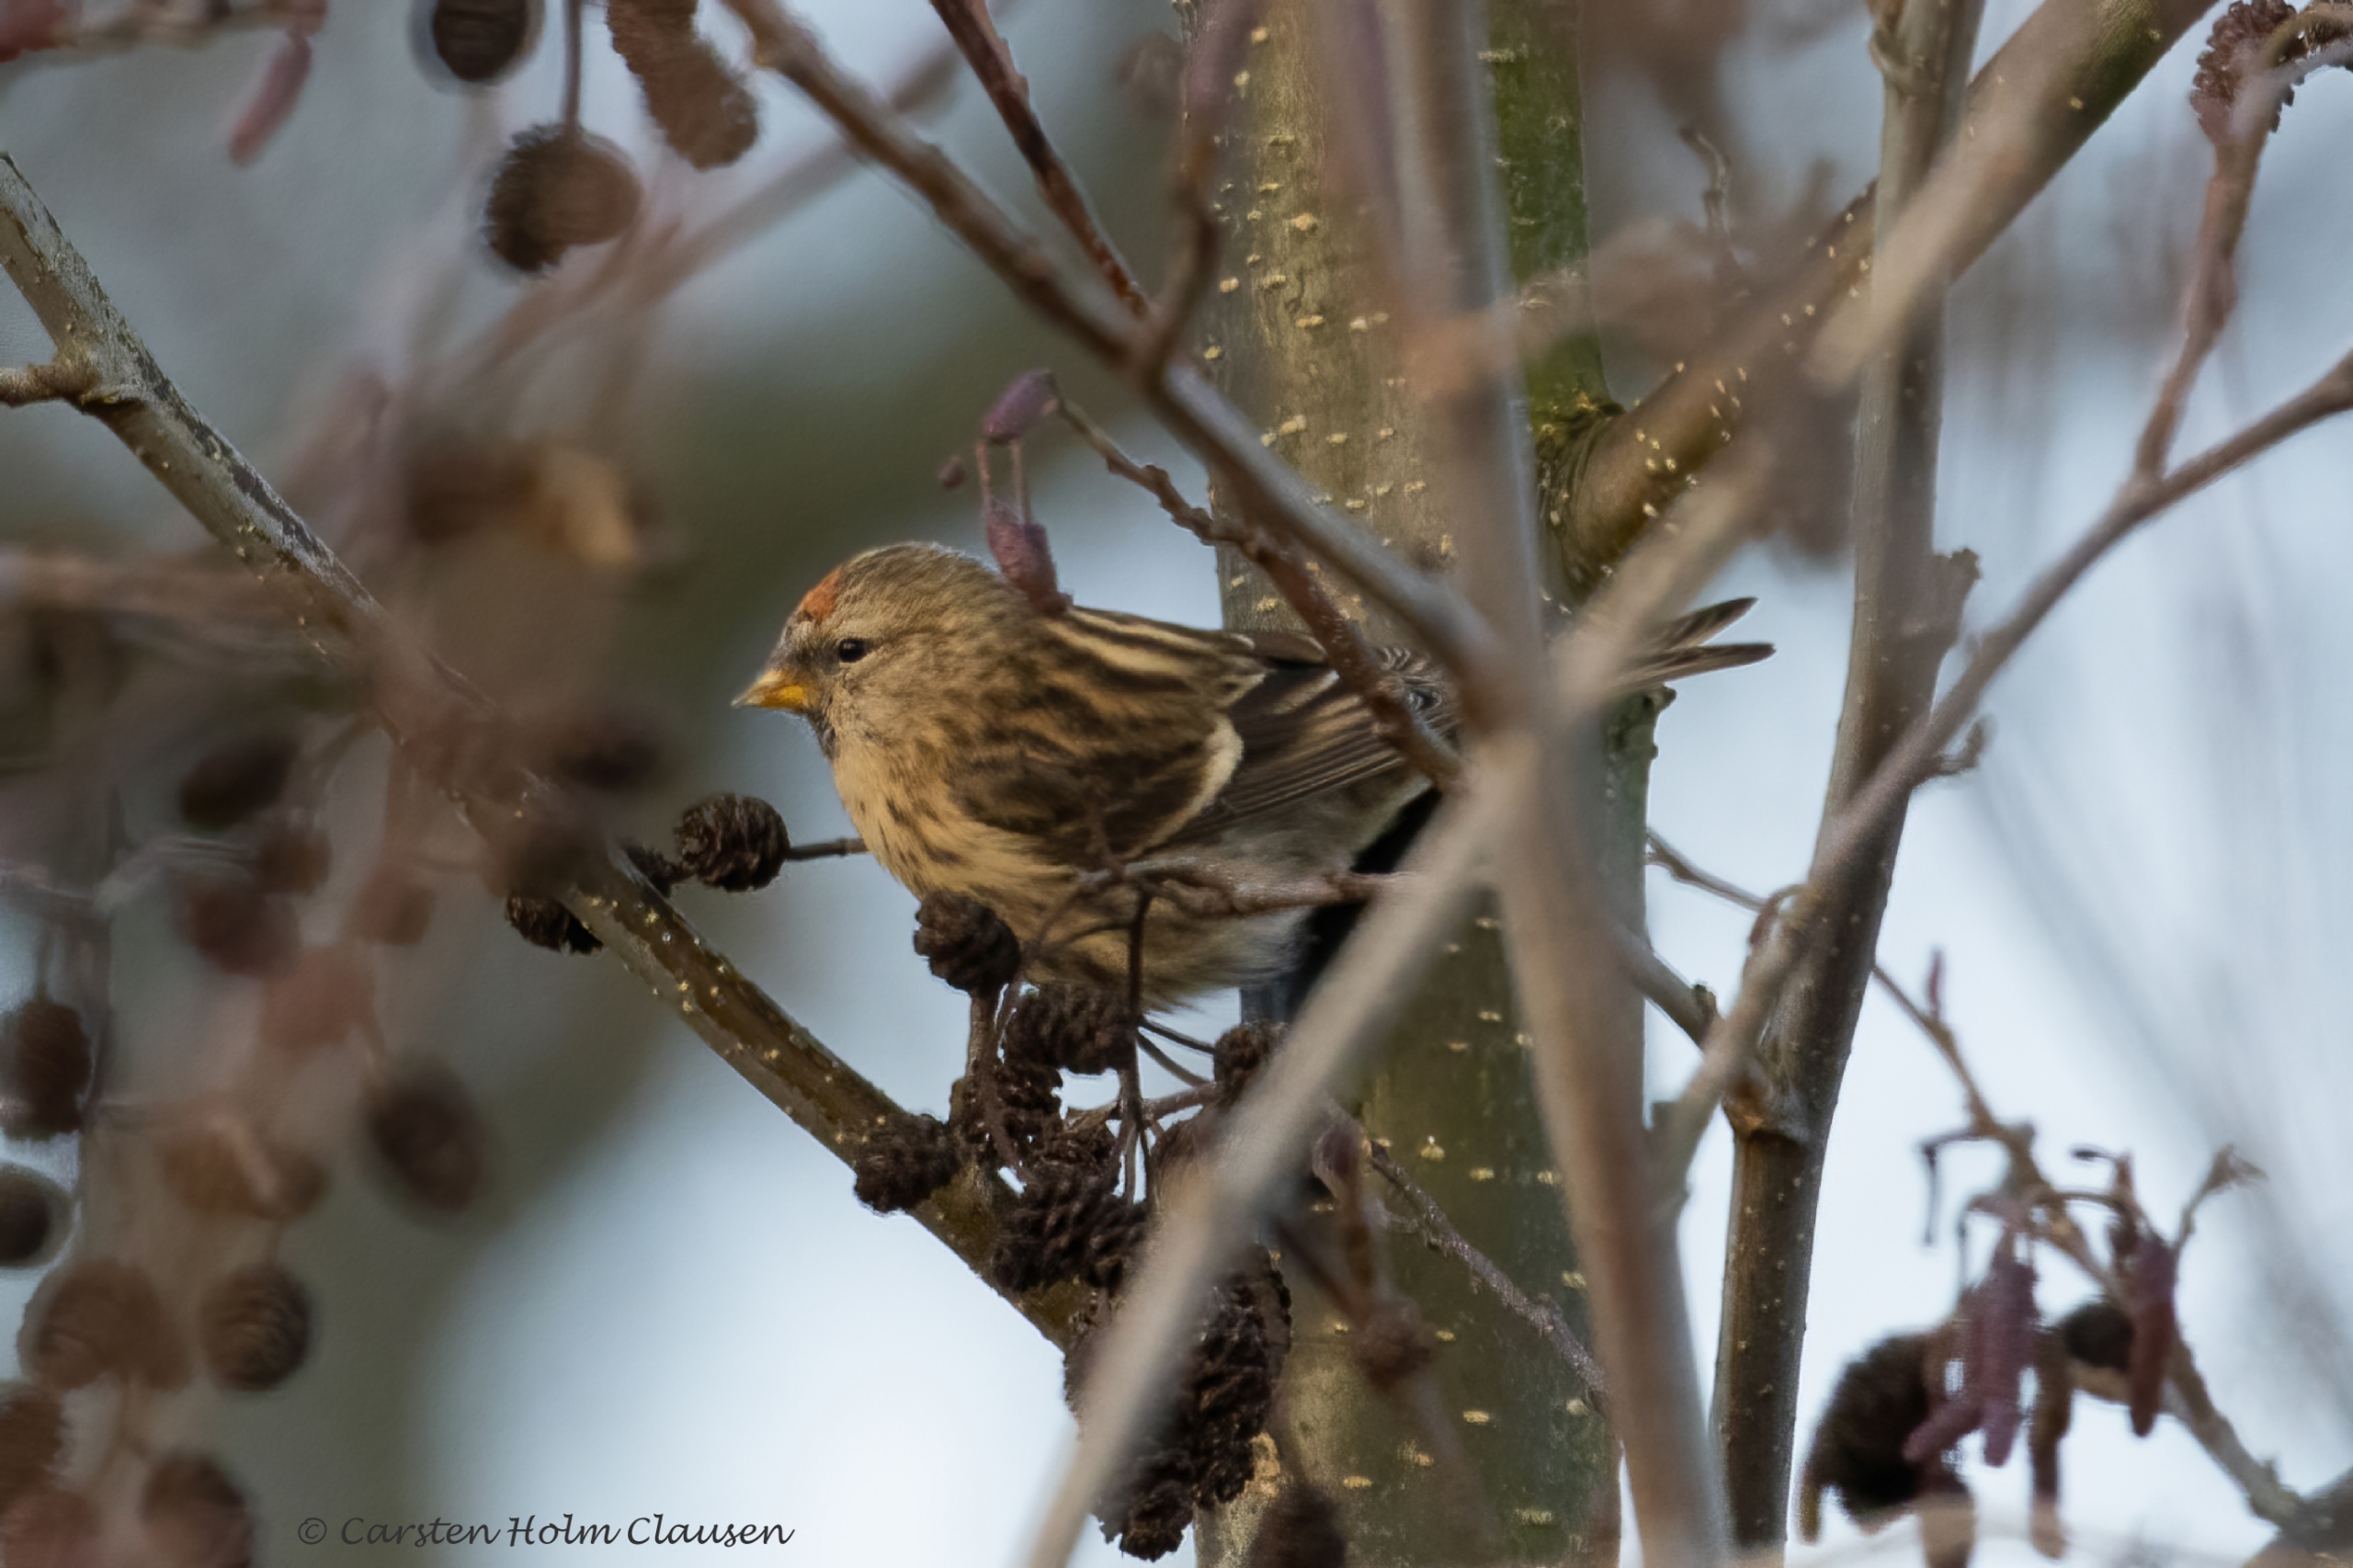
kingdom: Animalia
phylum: Chordata
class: Aves
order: Passeriformes
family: Fringillidae
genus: Acanthis
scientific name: Acanthis flammea
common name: Nordlig gråsisken
